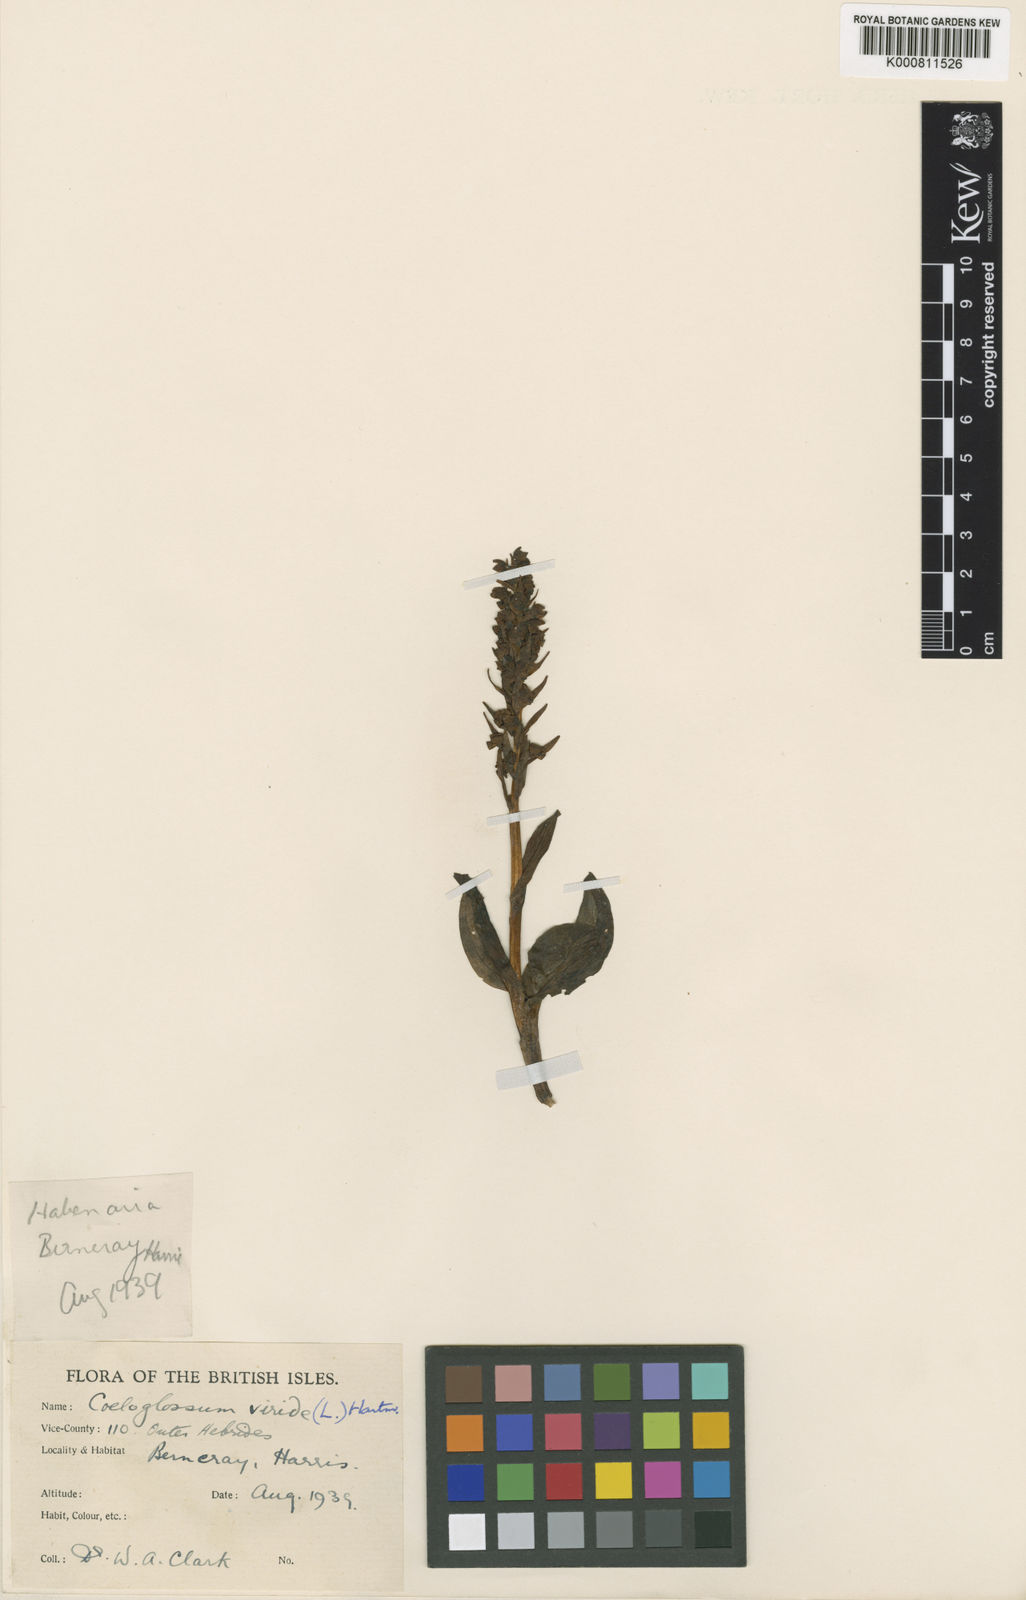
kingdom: Plantae
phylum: Tracheophyta
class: Liliopsida
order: Asparagales
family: Orchidaceae
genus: Dactylorhiza
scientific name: Dactylorhiza viridis
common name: Longbract frog orchid
